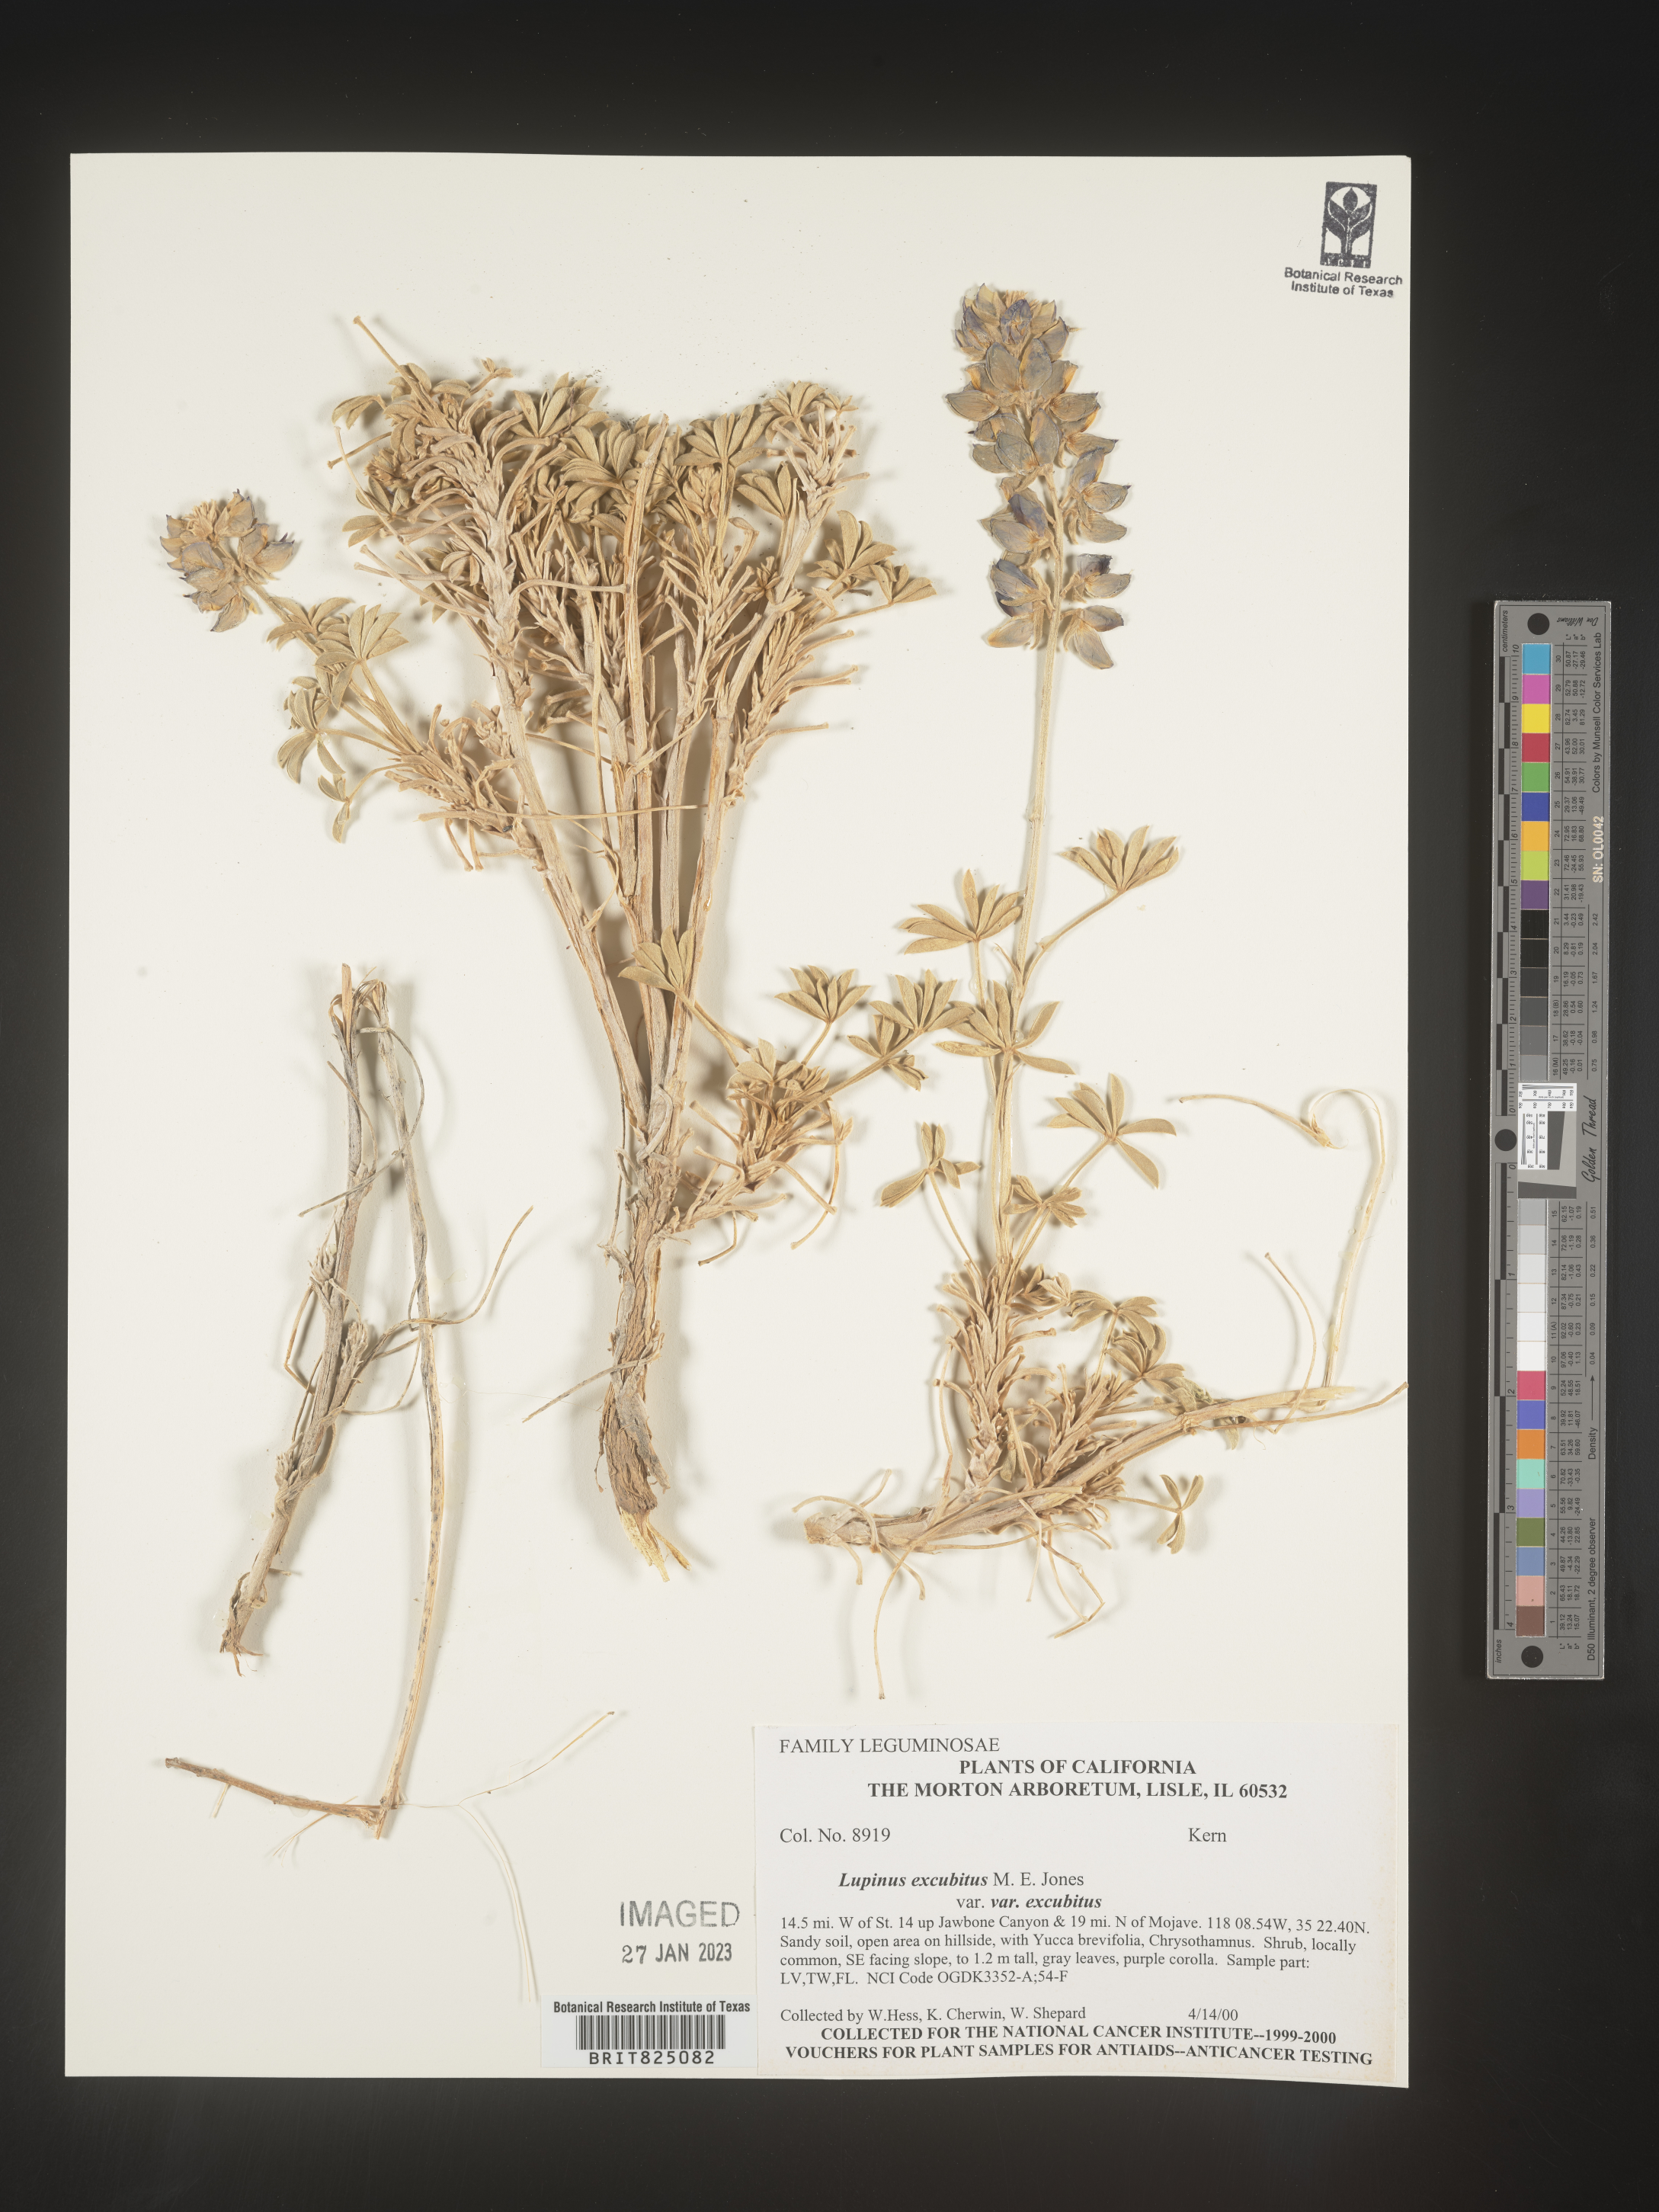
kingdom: Plantae
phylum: Tracheophyta
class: Magnoliopsida
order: Fabales
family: Fabaceae
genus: Lupinus
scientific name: Lupinus
